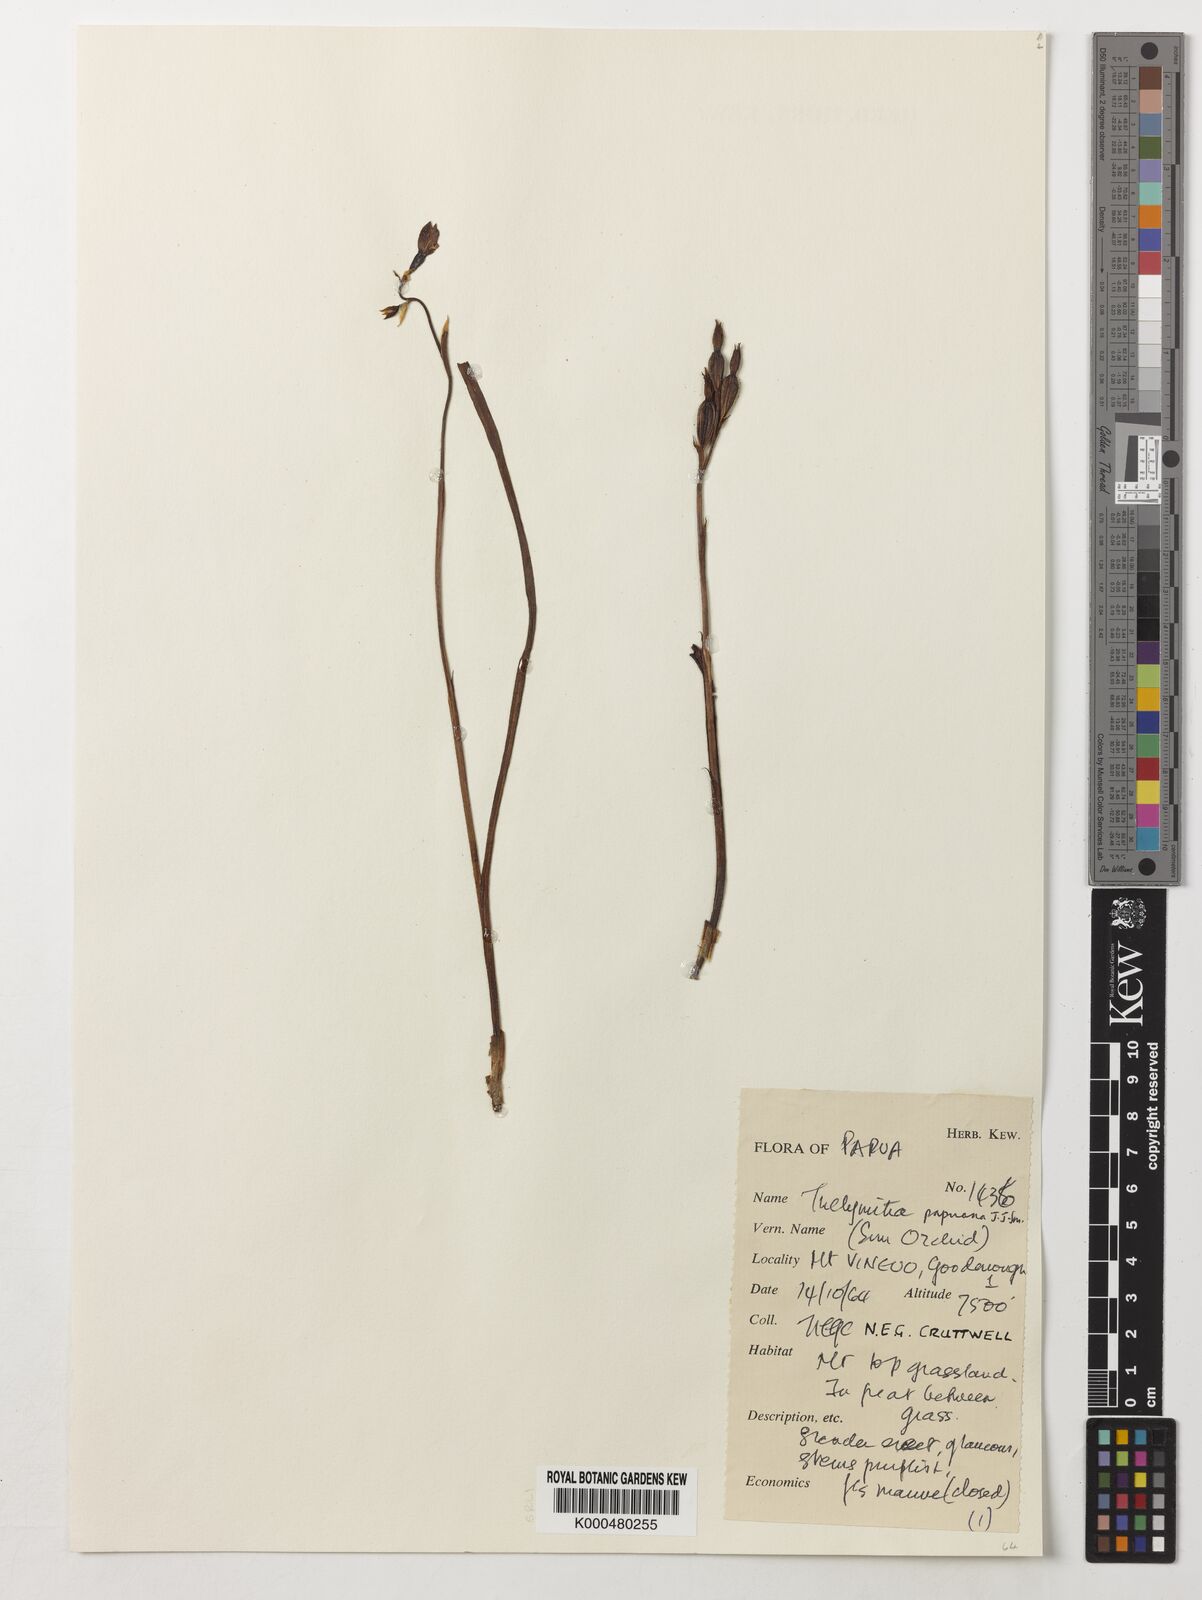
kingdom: Plantae
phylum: Tracheophyta
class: Liliopsida
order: Asparagales
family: Orchidaceae
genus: Thelymitra
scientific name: Thelymitra papuana
